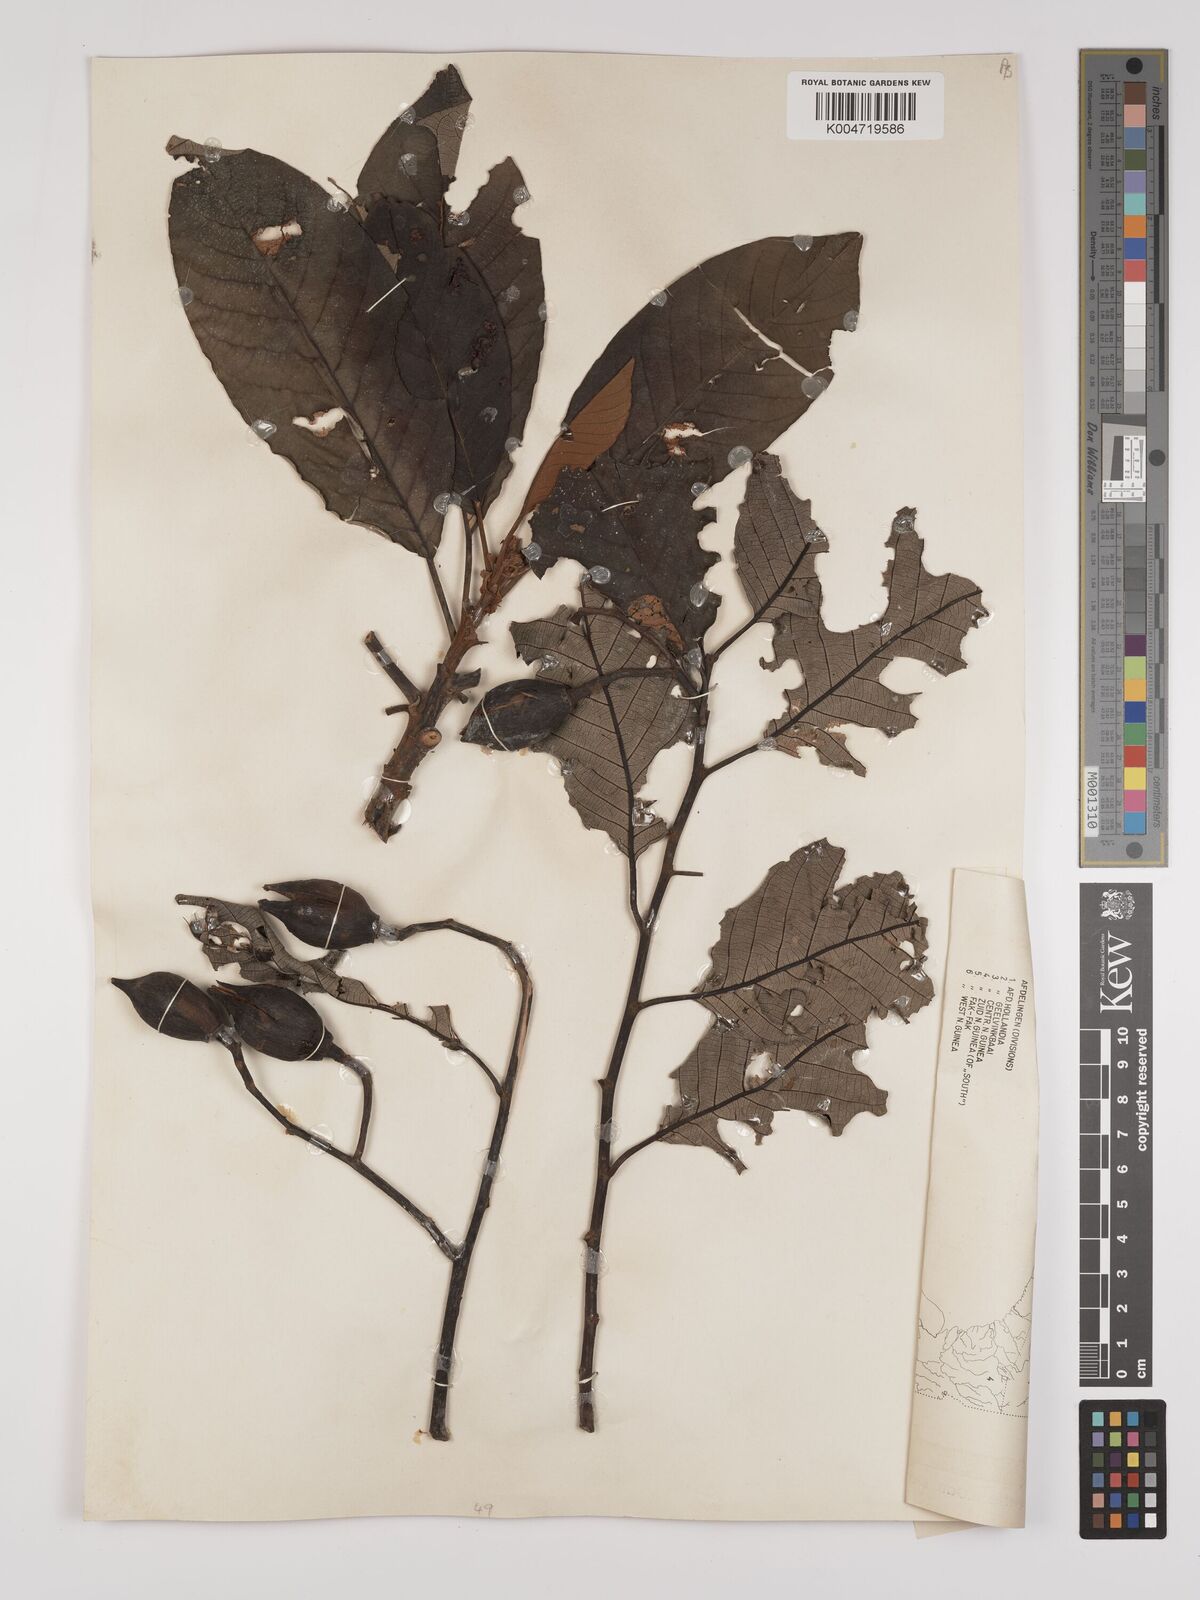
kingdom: Plantae
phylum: Tracheophyta
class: Magnoliopsida
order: Rosales
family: Rhamnaceae
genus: Alphitonia
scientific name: Alphitonia macrocarpa
